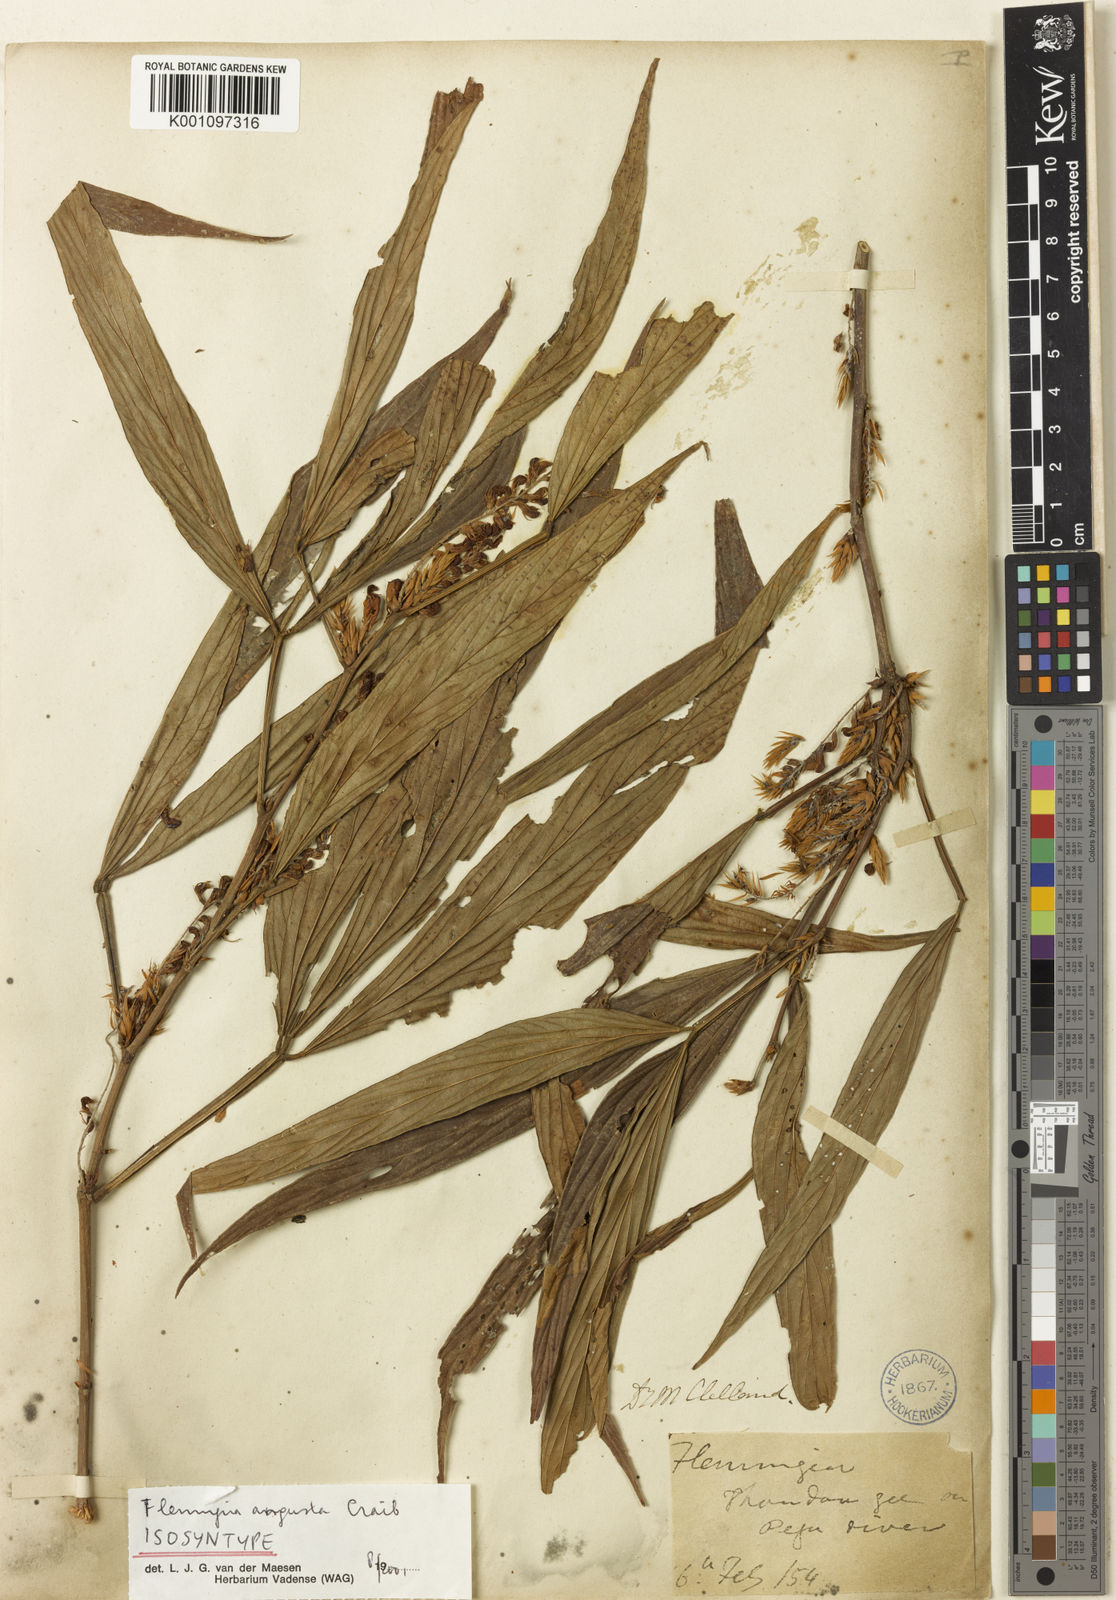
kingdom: Plantae
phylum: Tracheophyta
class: Magnoliopsida
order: Fabales
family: Fabaceae
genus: Flemingia
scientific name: Flemingia praecox
